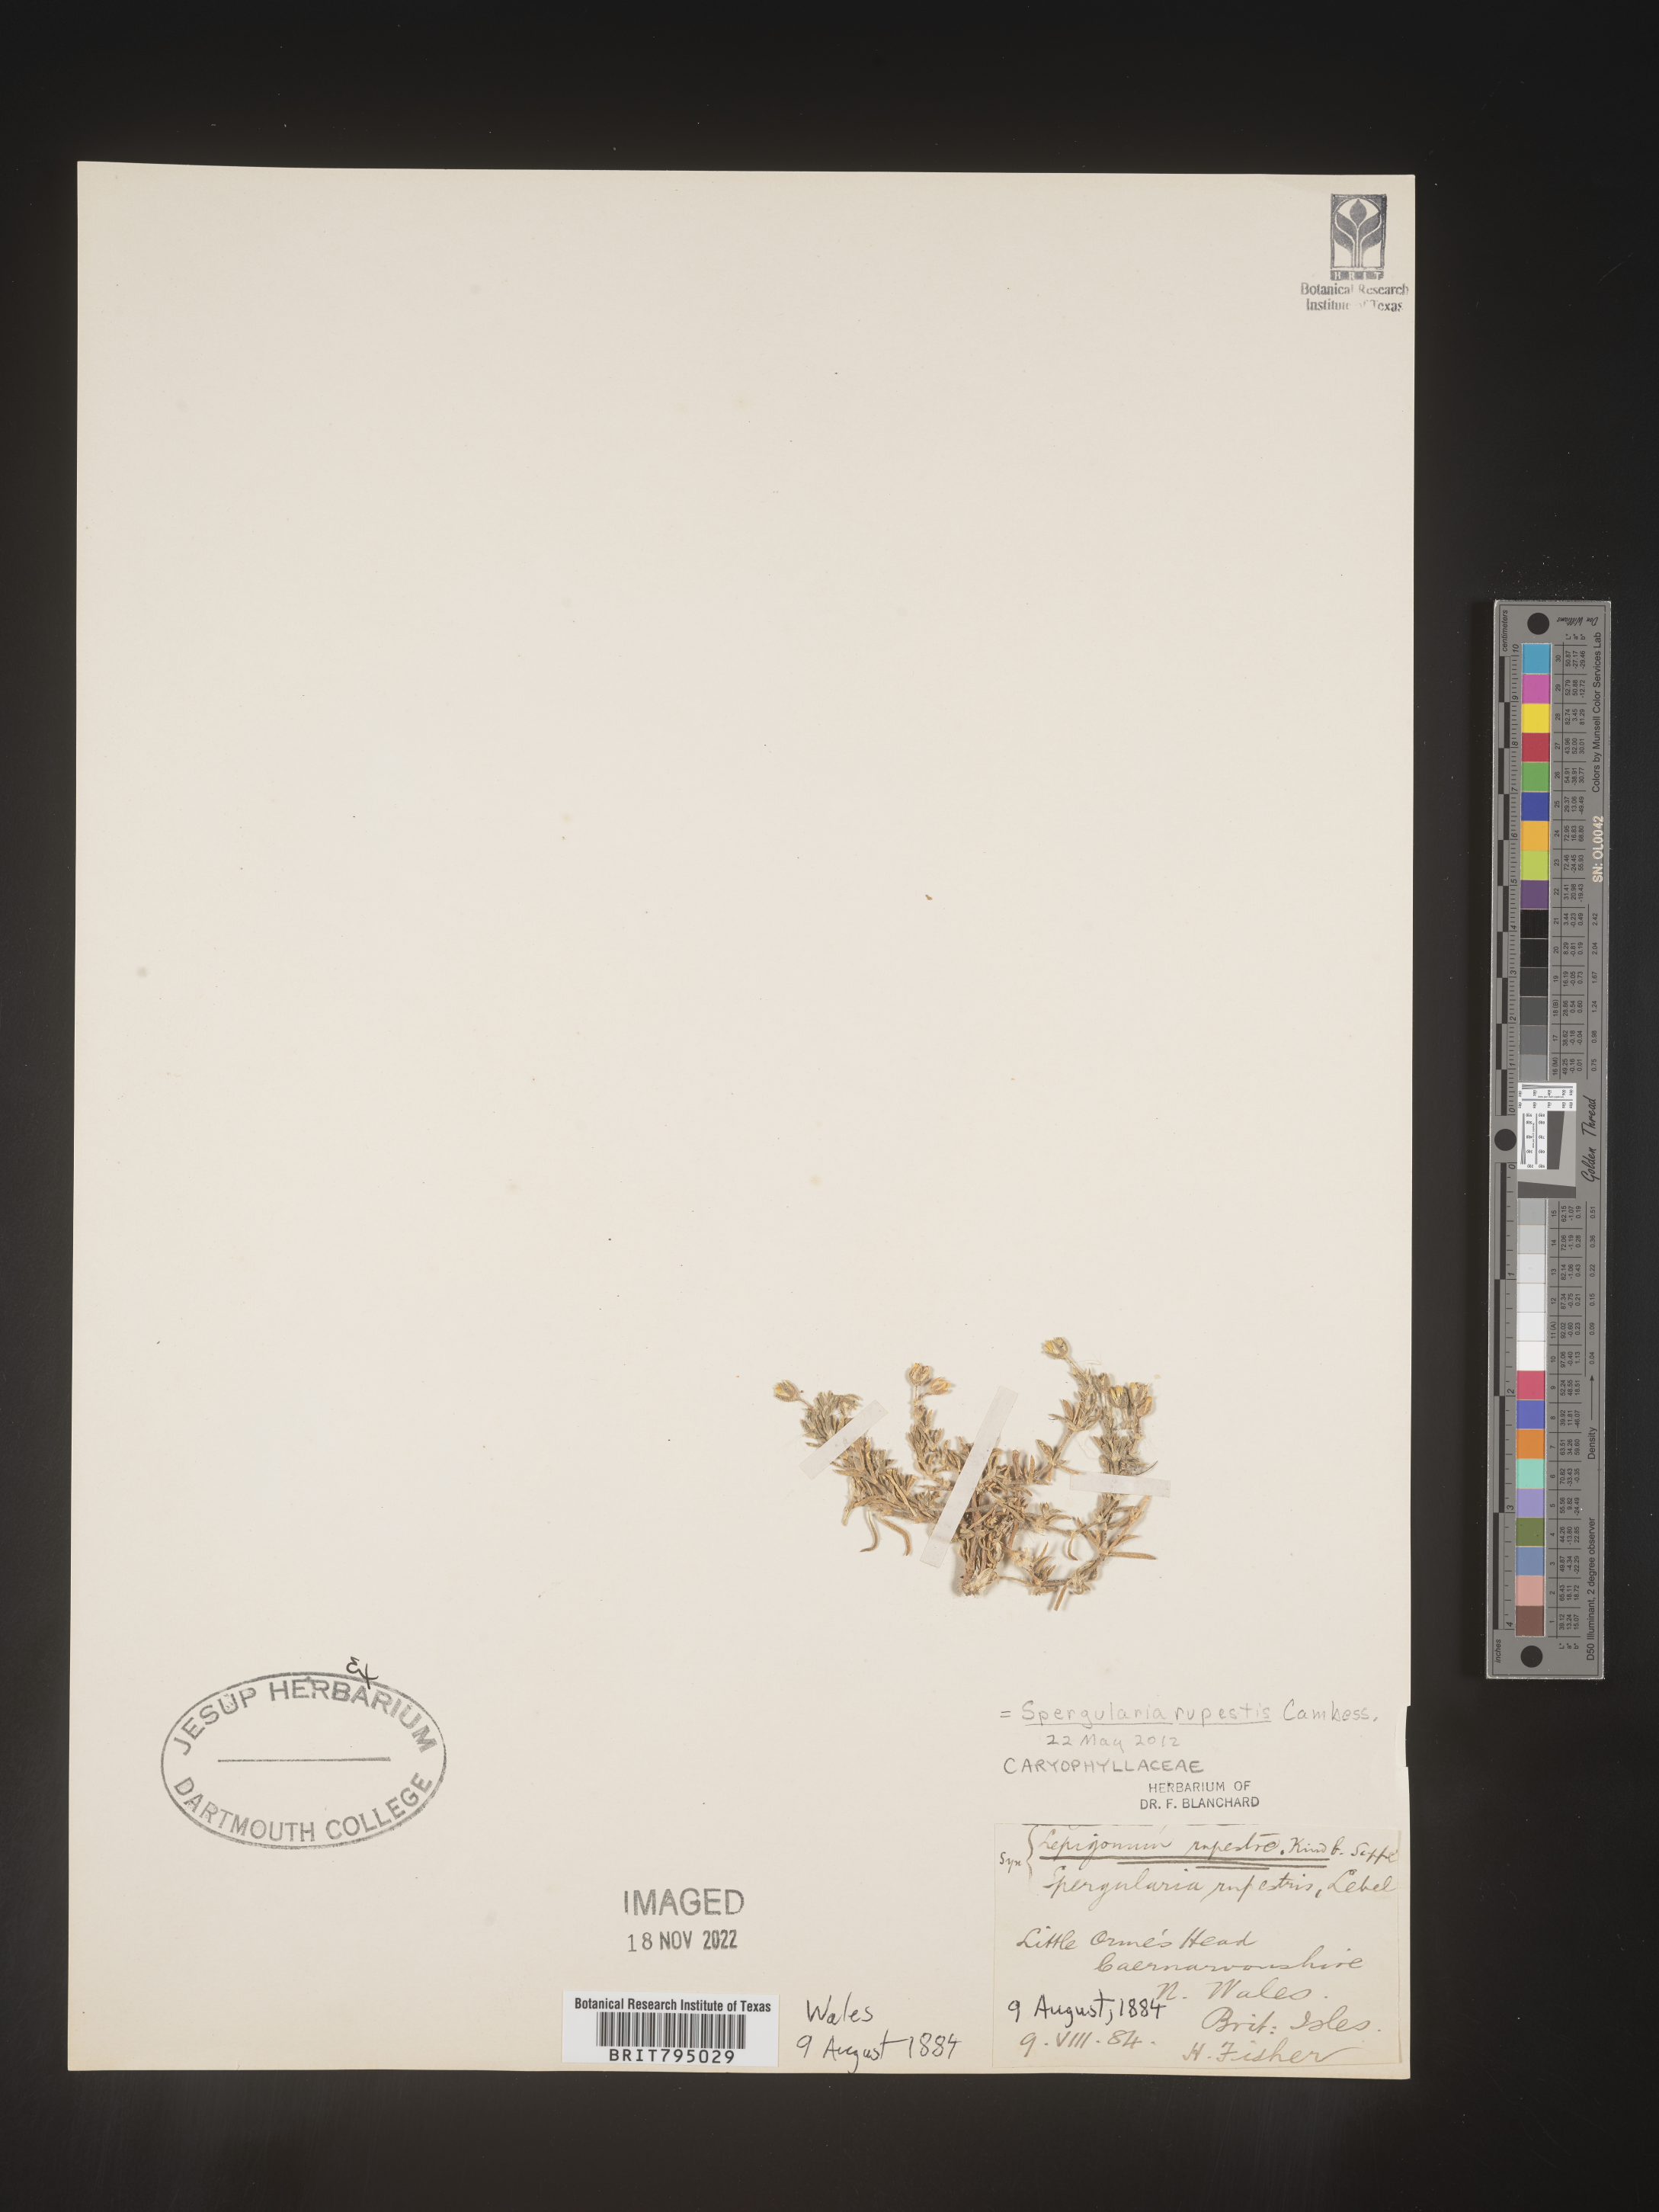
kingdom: Plantae
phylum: Tracheophyta
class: Magnoliopsida
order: Caryophyllales
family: Caryophyllaceae
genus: Spergularia
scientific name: Spergularia villosa
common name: Hairy sandspurry
